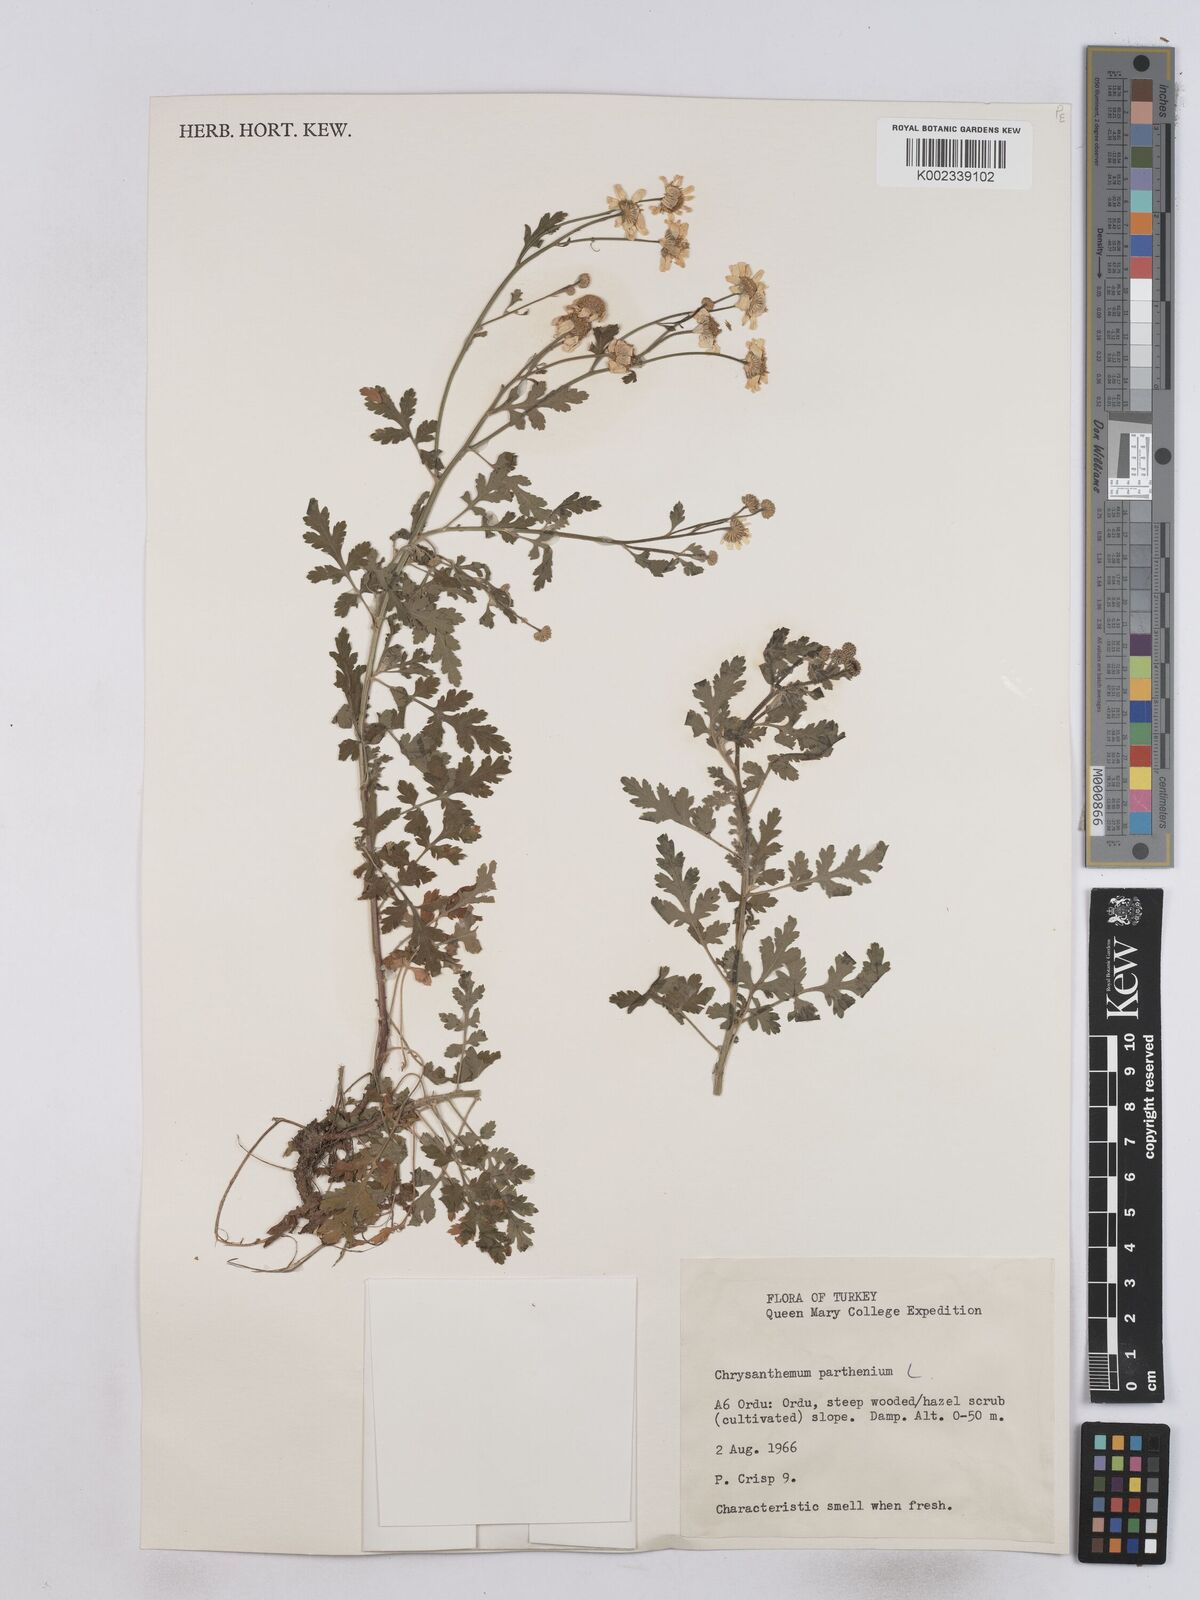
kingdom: Plantae
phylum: Tracheophyta
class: Magnoliopsida
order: Asterales
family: Asteraceae
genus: Tanacetum
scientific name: Tanacetum parthenium
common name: Feverfew
